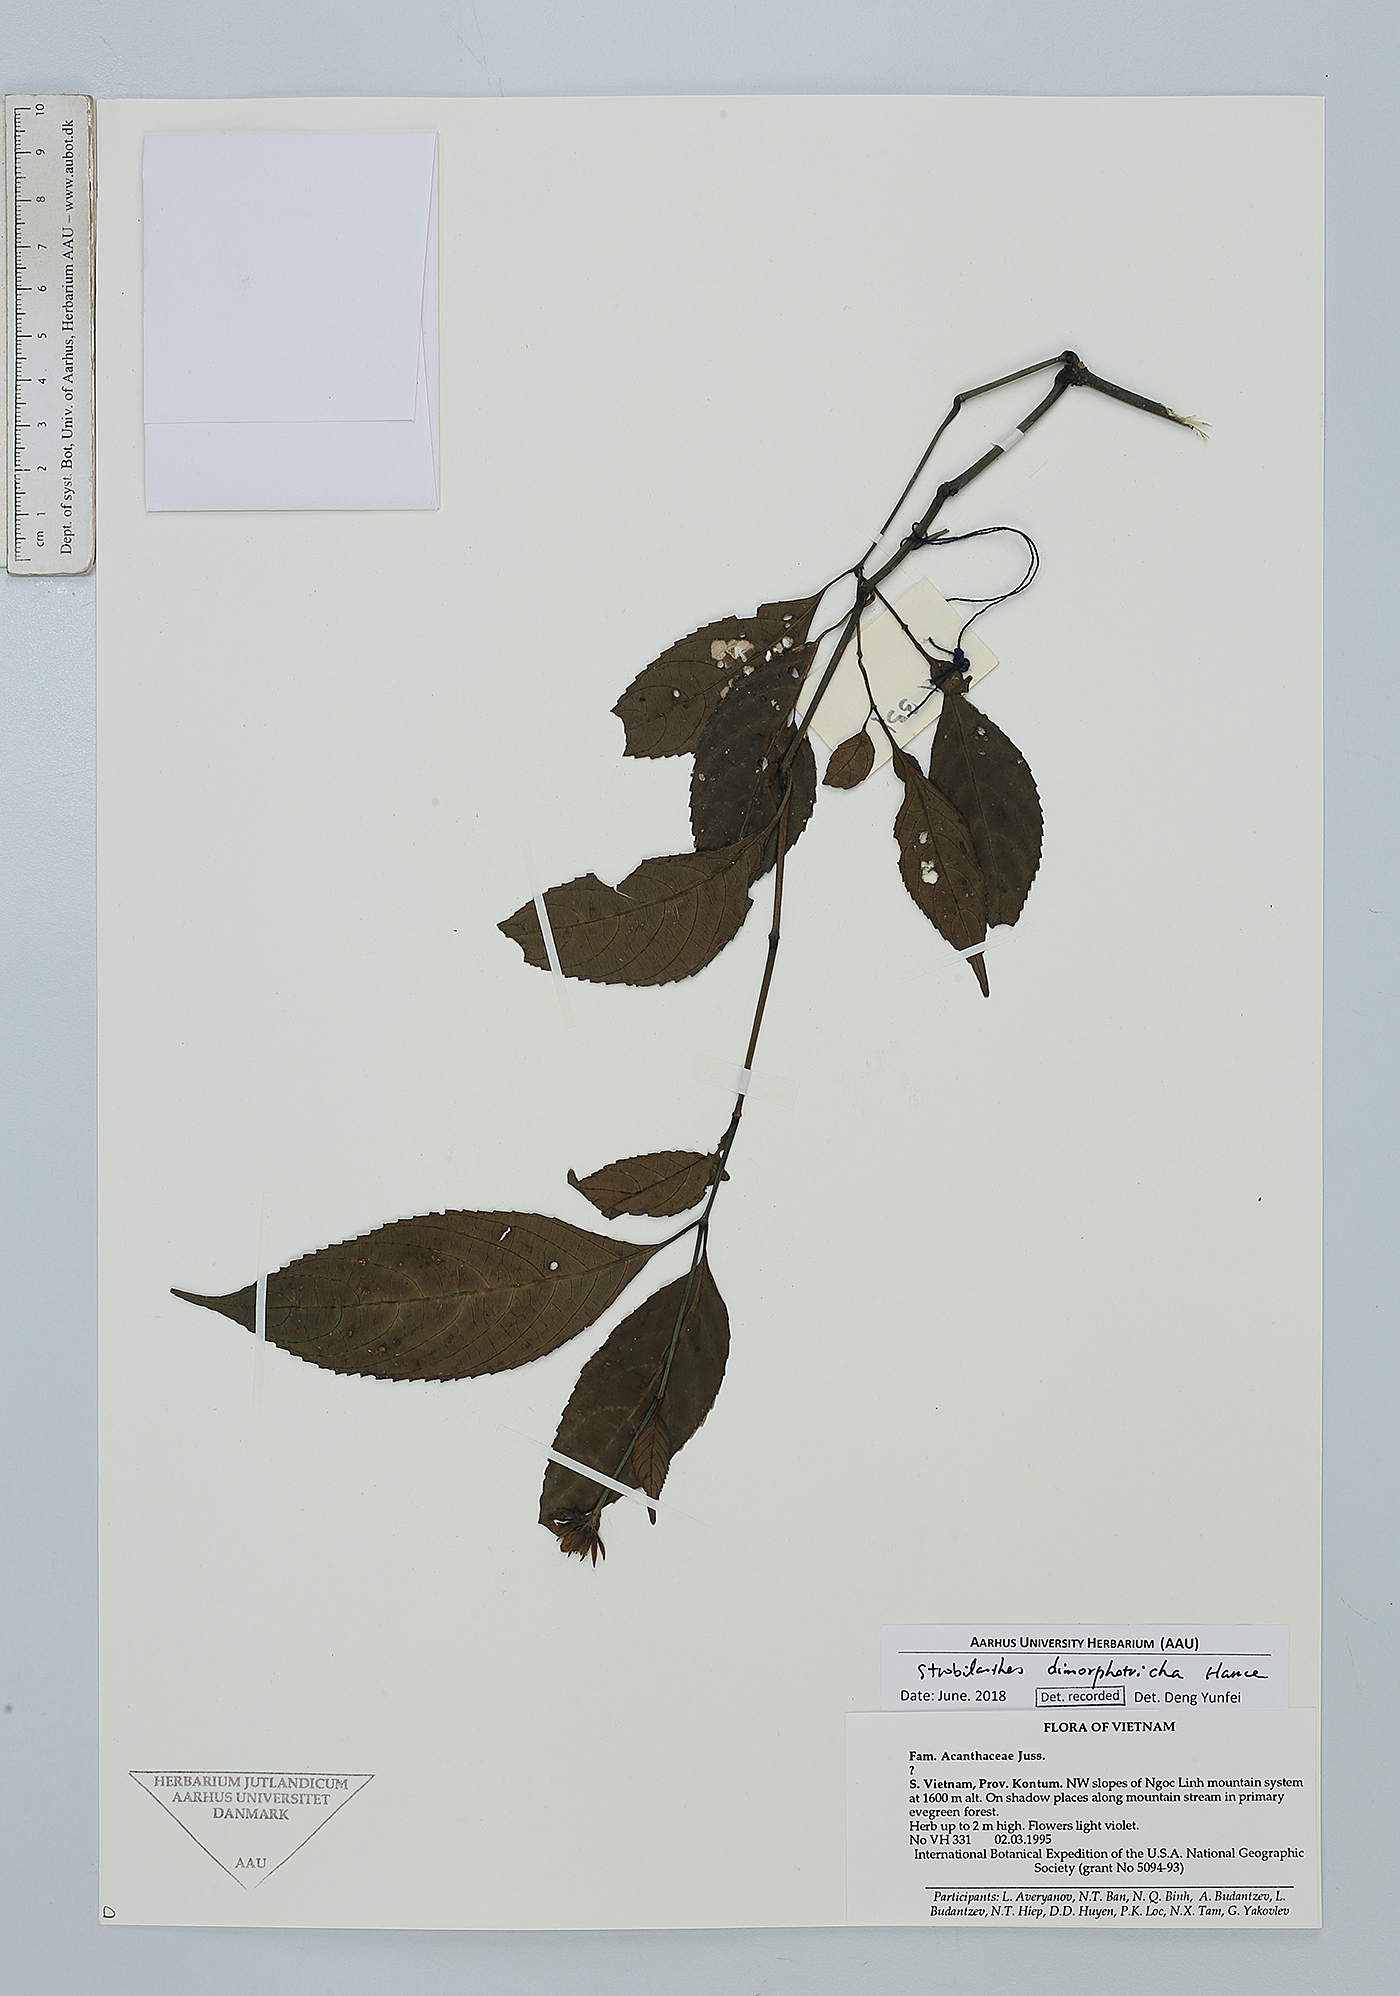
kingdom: Plantae
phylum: Tracheophyta
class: Magnoliopsida
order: Lamiales
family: Acanthaceae
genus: Strobilanthes
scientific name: Strobilanthes dimorphotricha
